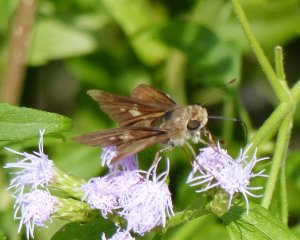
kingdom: Animalia
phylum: Arthropoda
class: Insecta
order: Lepidoptera
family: Hesperiidae
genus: Nyctelius
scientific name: Nyctelius nyctelius
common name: Violet-banded Skipper
